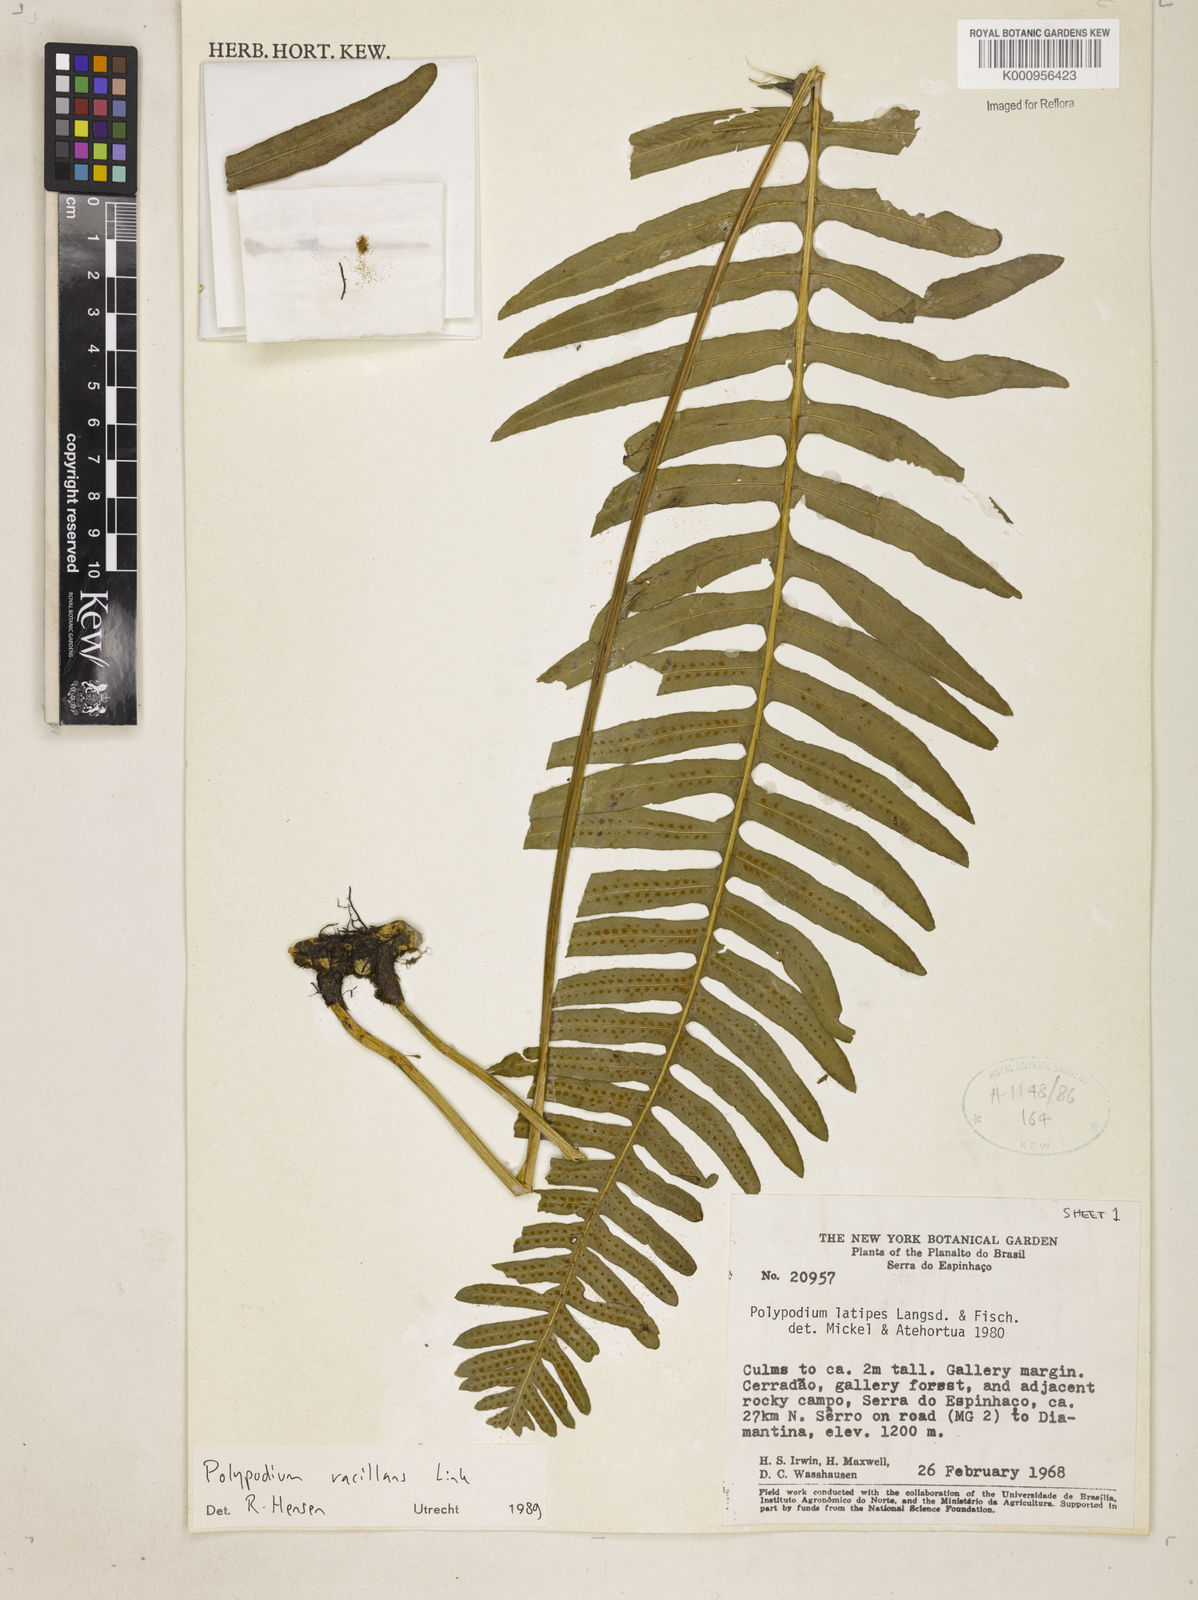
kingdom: Plantae
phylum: Tracheophyta
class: Polypodiopsida
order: Polypodiales
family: Polypodiaceae
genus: Serpocaulon
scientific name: Serpocaulon vacillans
